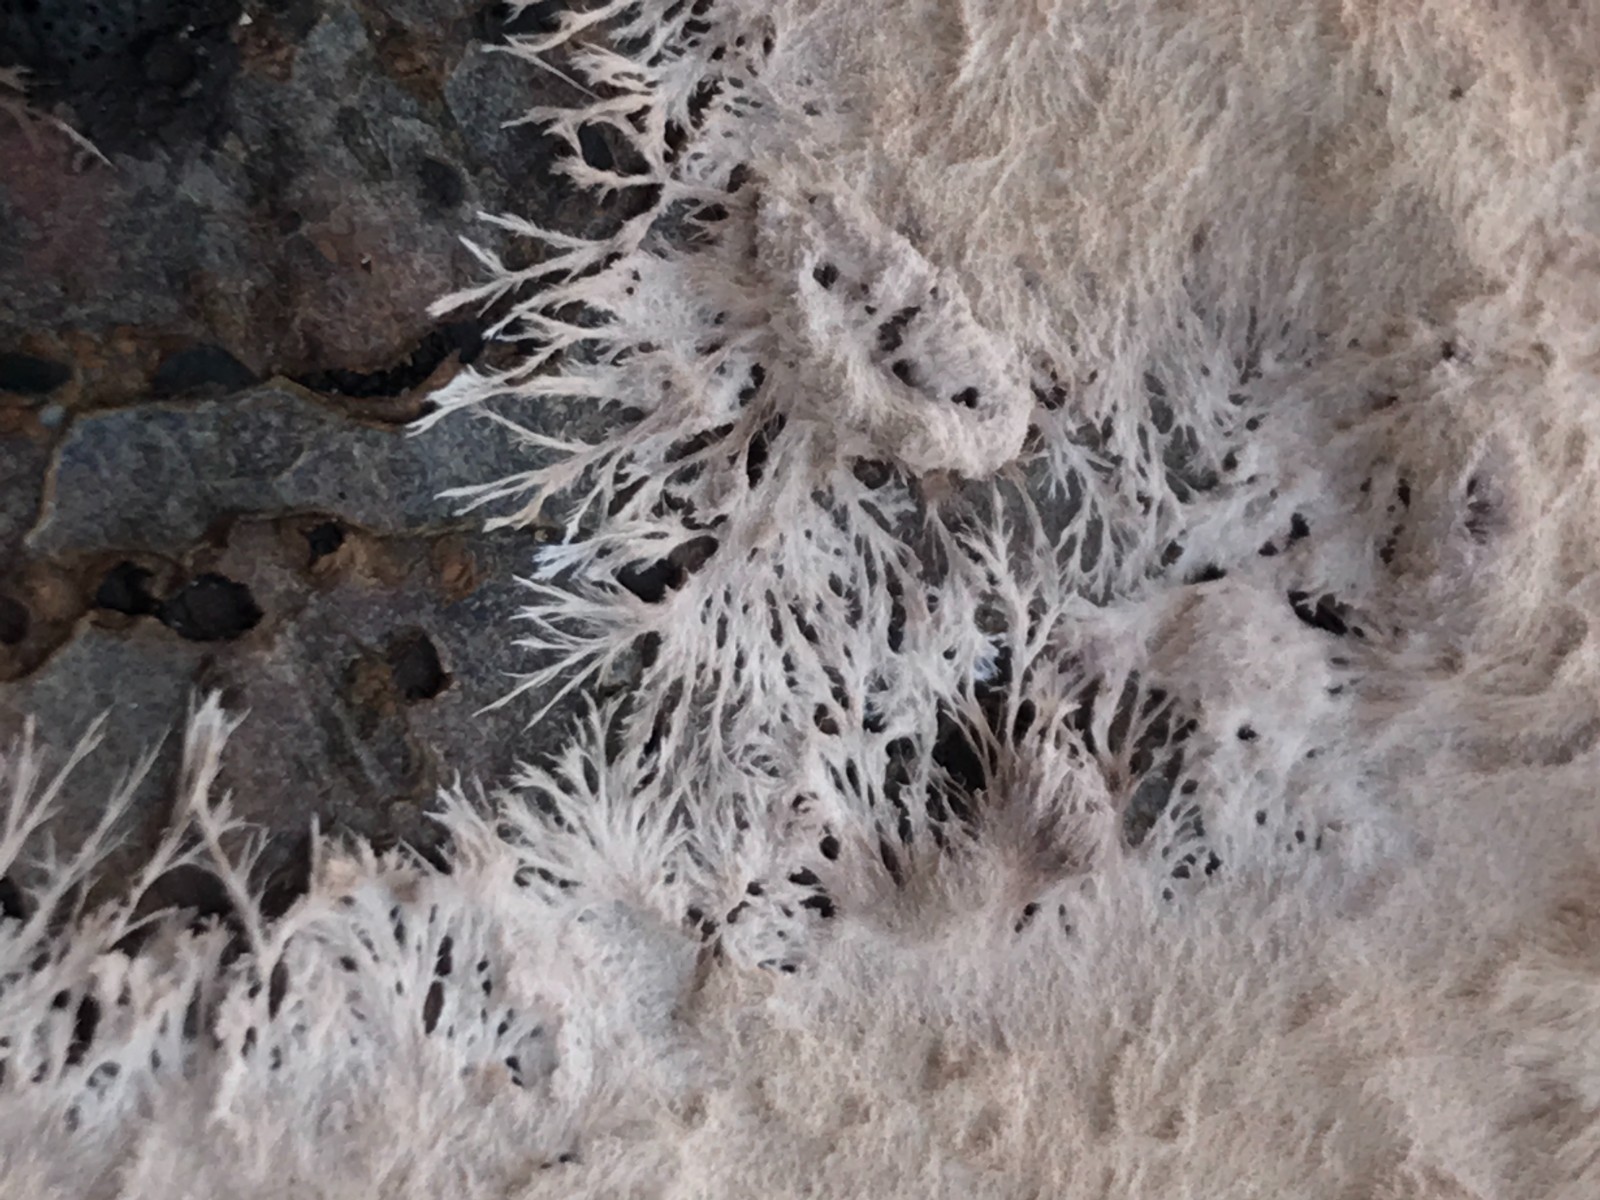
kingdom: Fungi
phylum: Basidiomycota
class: Agaricomycetes
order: Polyporales
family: Steccherinaceae
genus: Steccherinum
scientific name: Steccherinum fimbriatum
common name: trådet skønpig
